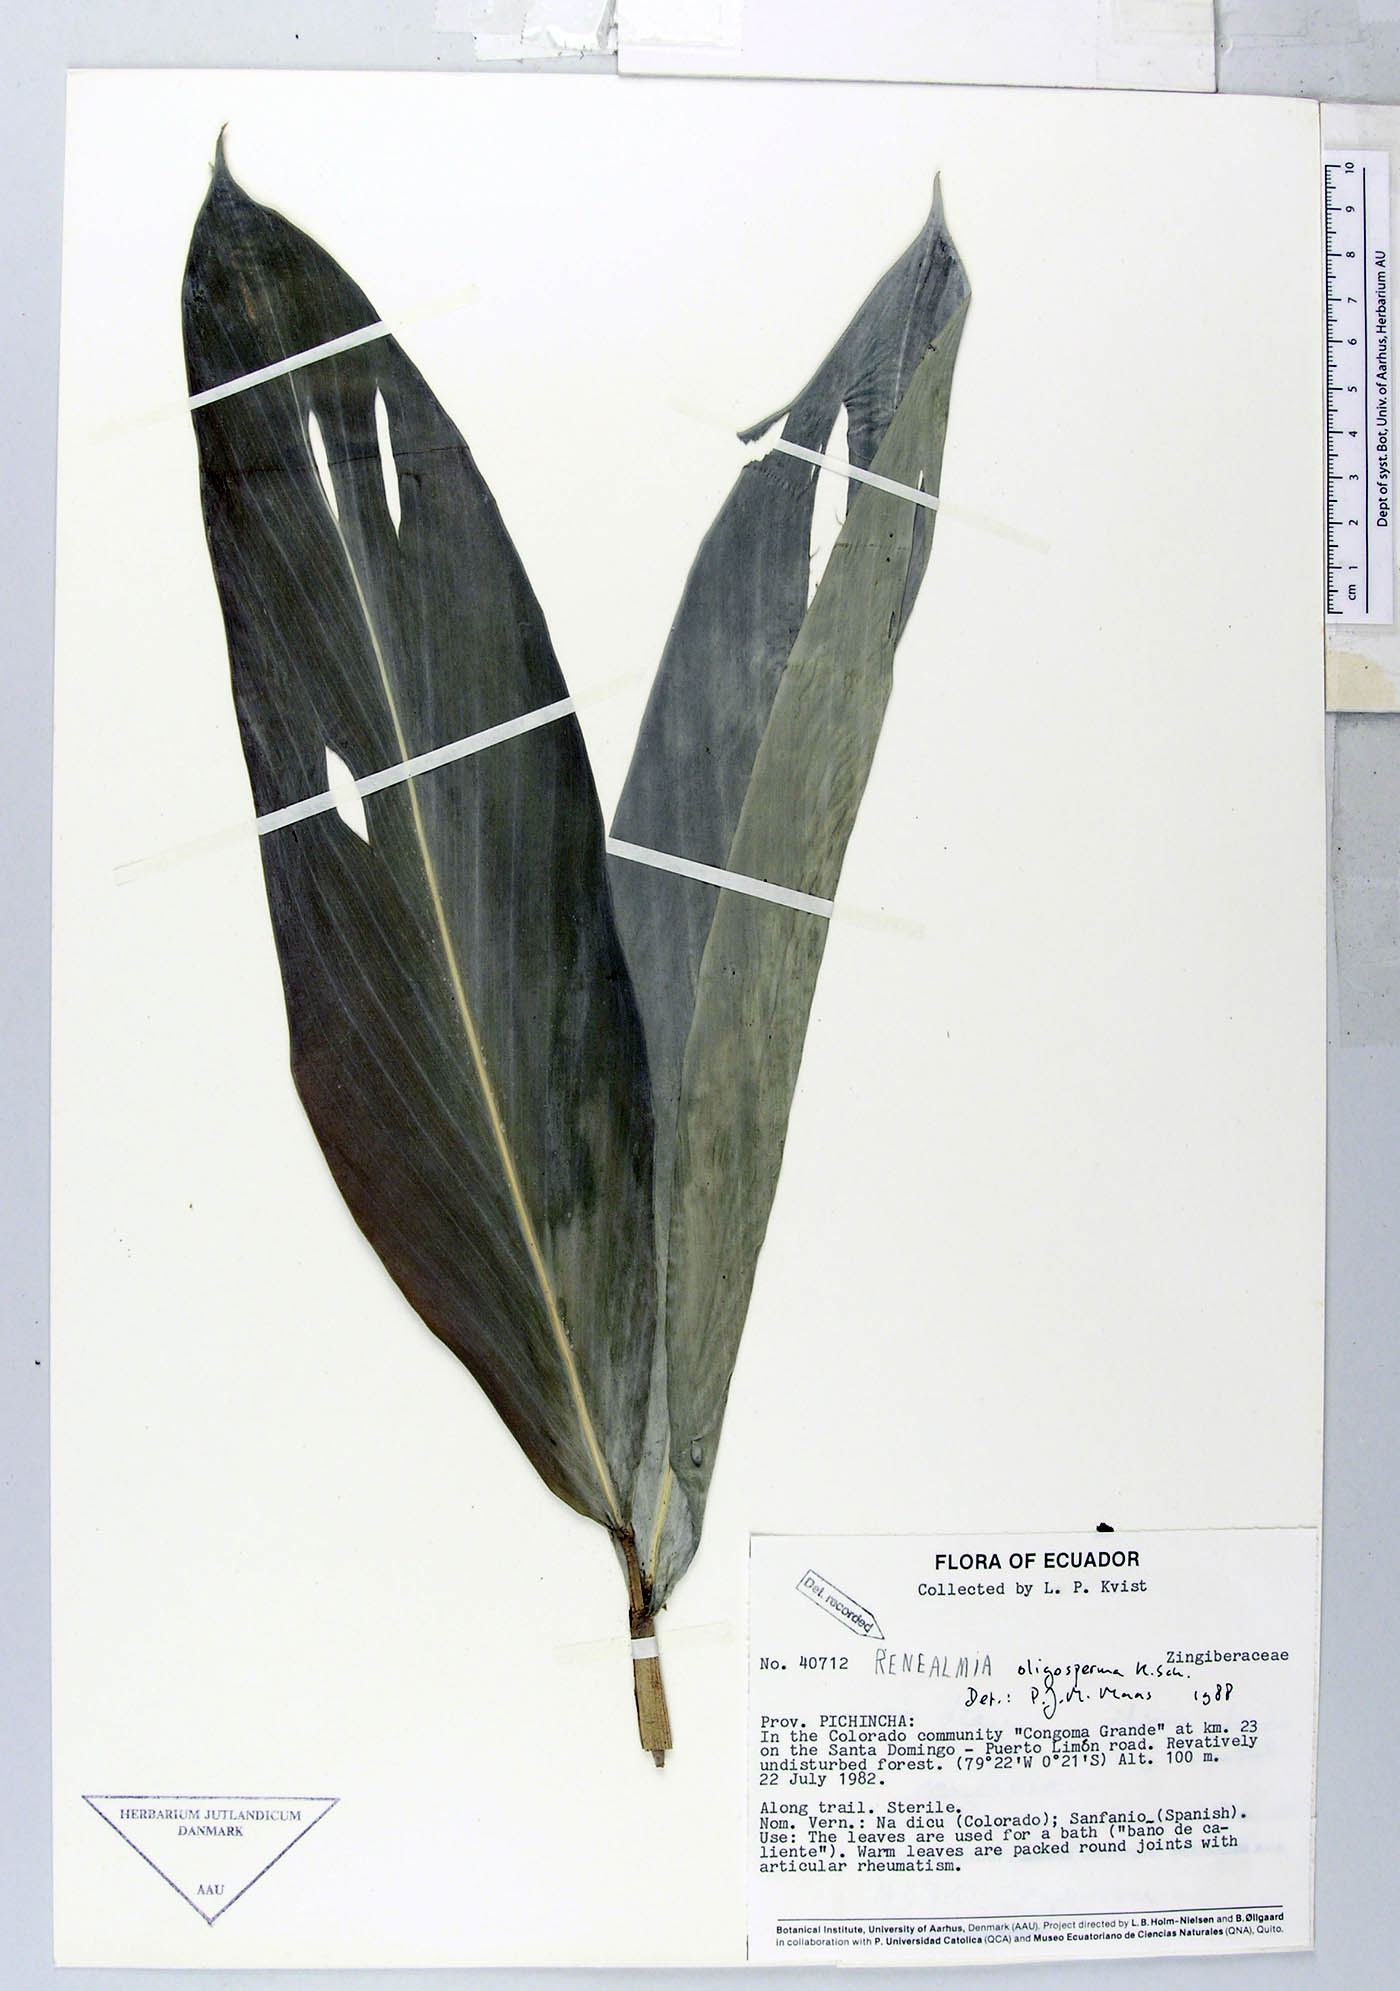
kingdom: Plantae
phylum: Tracheophyta
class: Liliopsida
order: Zingiberales
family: Zingiberaceae
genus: Renealmia
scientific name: Renealmia oligosperma
